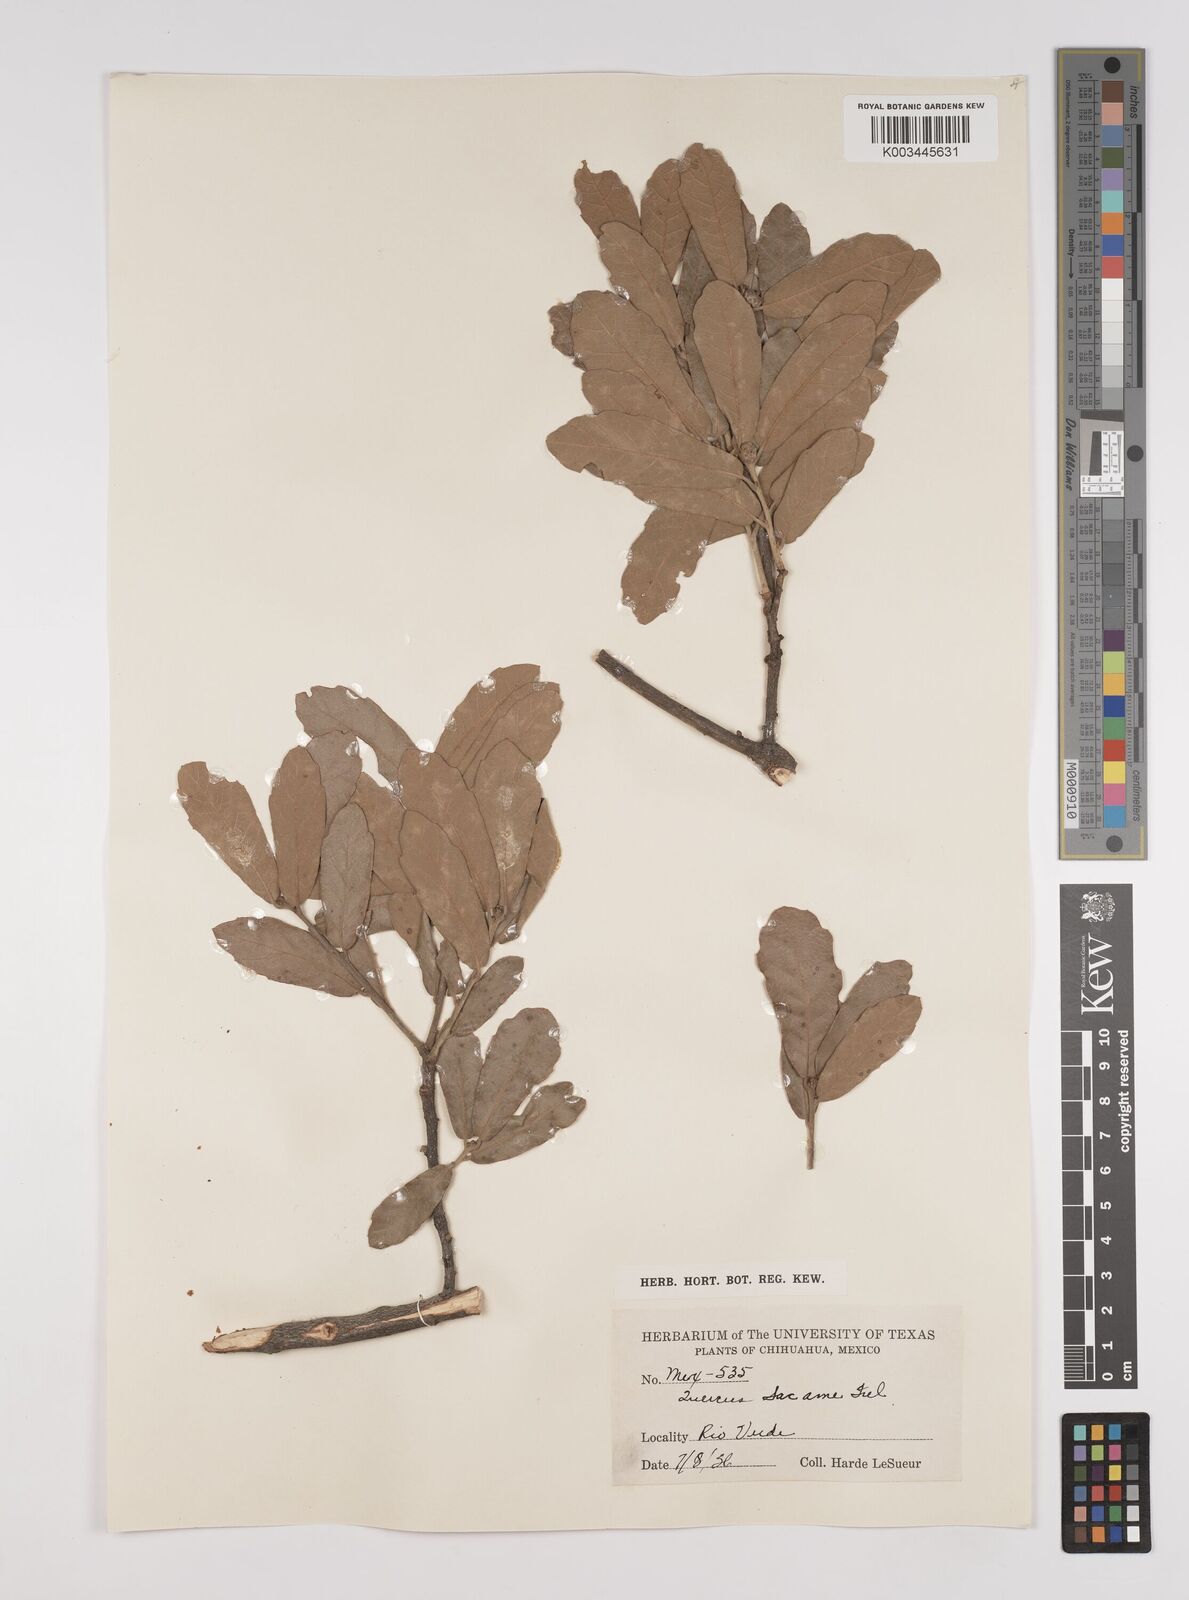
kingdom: Plantae
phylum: Tracheophyta
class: Magnoliopsida
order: Fagales
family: Fagaceae
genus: Quercus
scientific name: Quercus arizonica
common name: Arizona white oak
